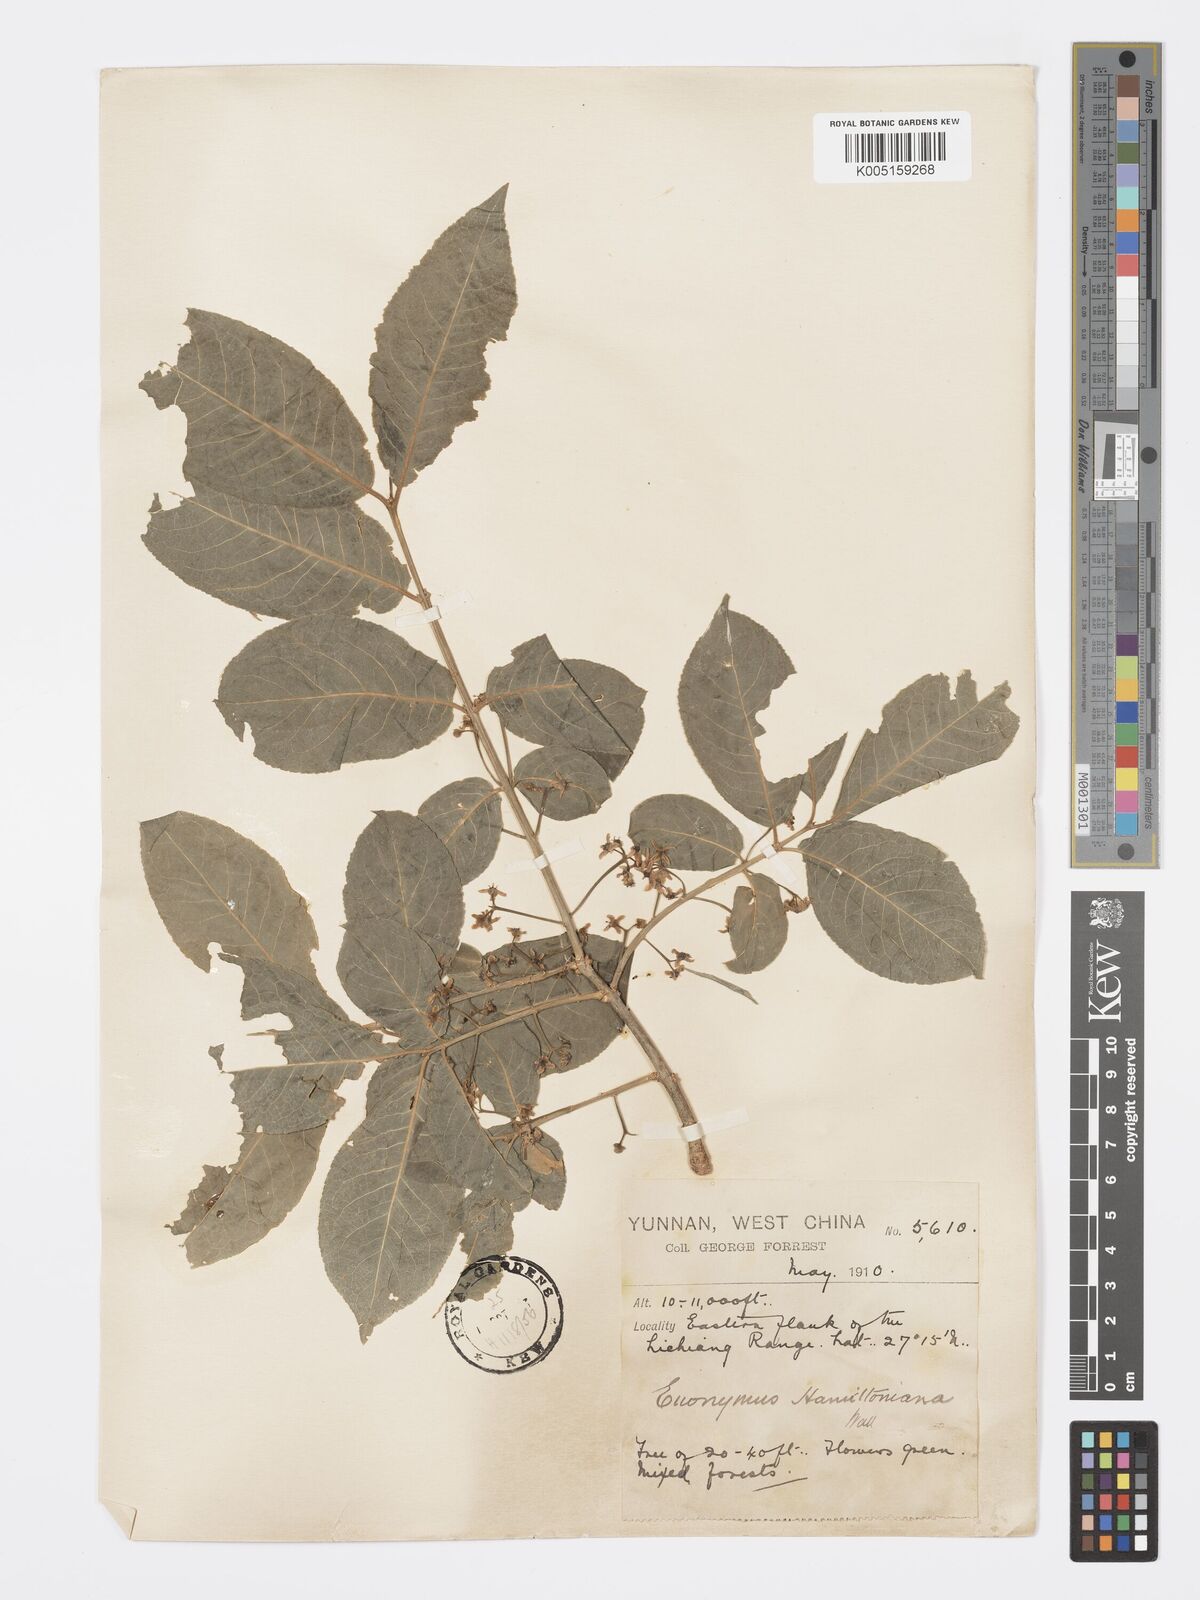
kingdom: Plantae
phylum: Tracheophyta
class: Magnoliopsida
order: Celastrales
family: Celastraceae
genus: Euonymus
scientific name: Euonymus hamiltonianus
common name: Hamilton's spindletree
